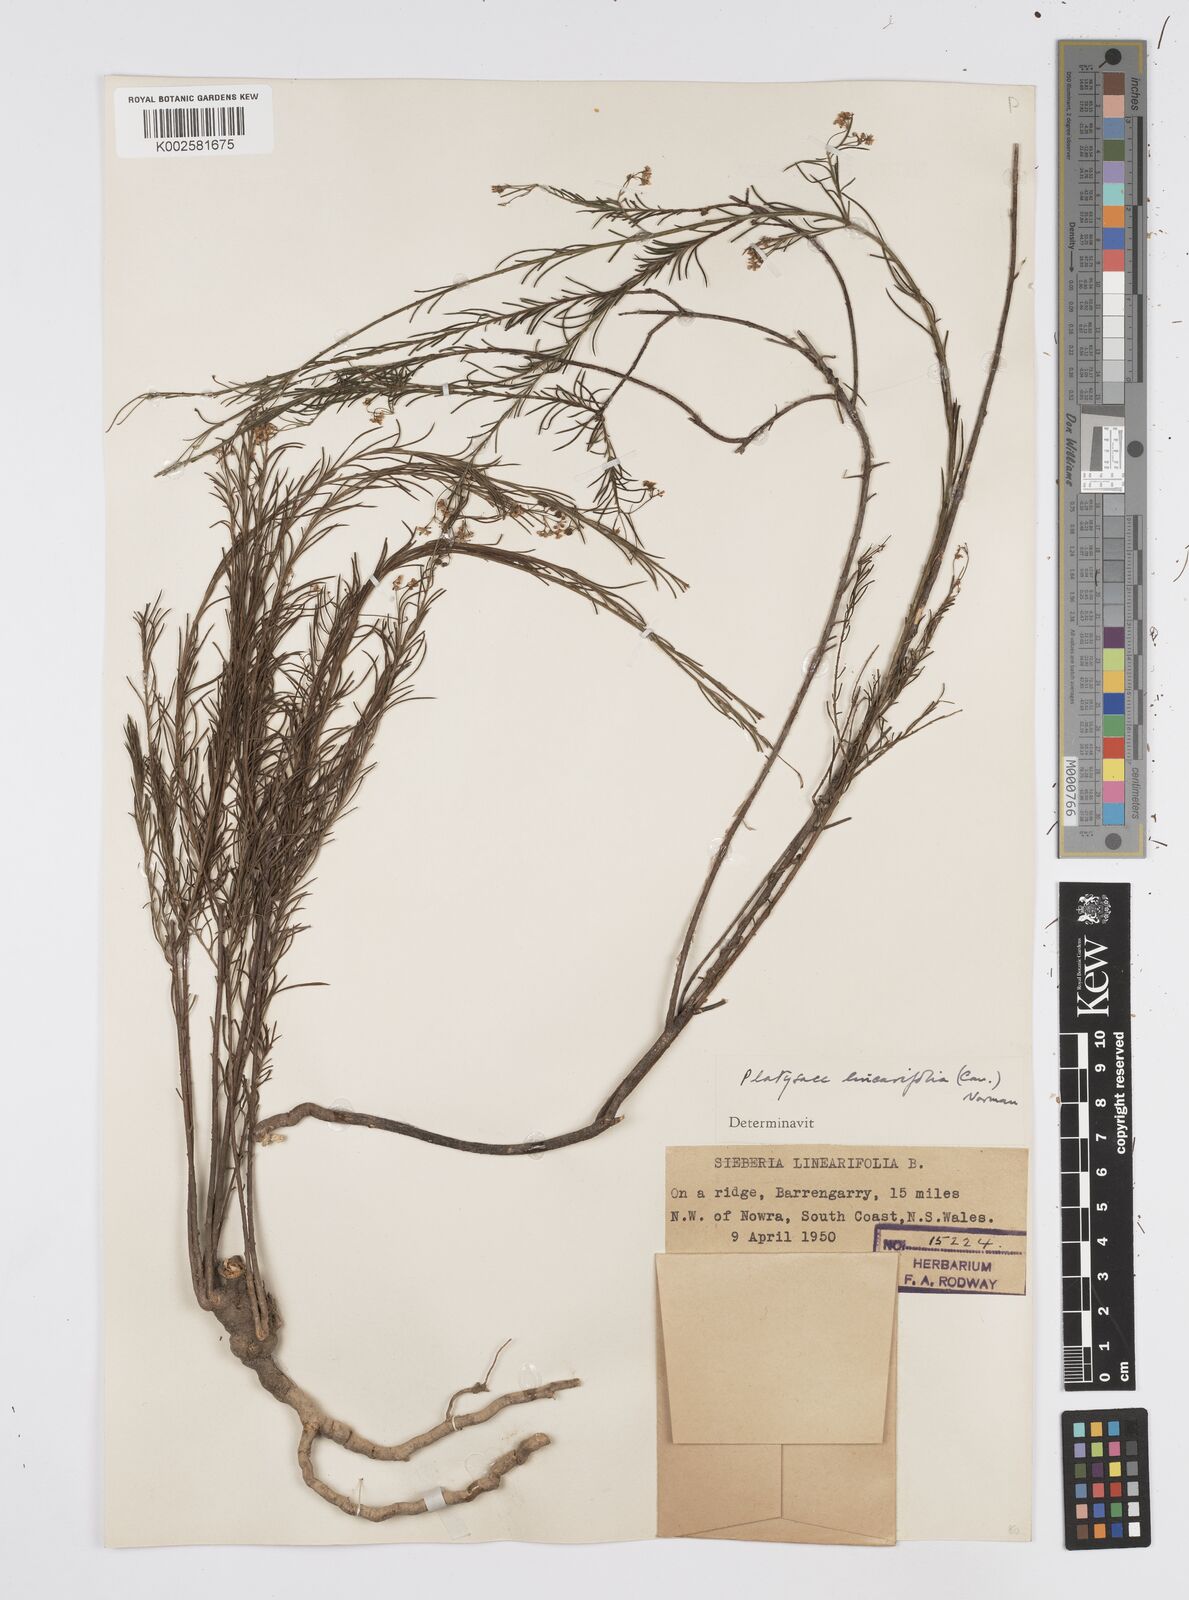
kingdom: Plantae
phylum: Tracheophyta
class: Magnoliopsida
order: Apiales
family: Apiaceae
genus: Platysace
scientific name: Platysace linearifolia
